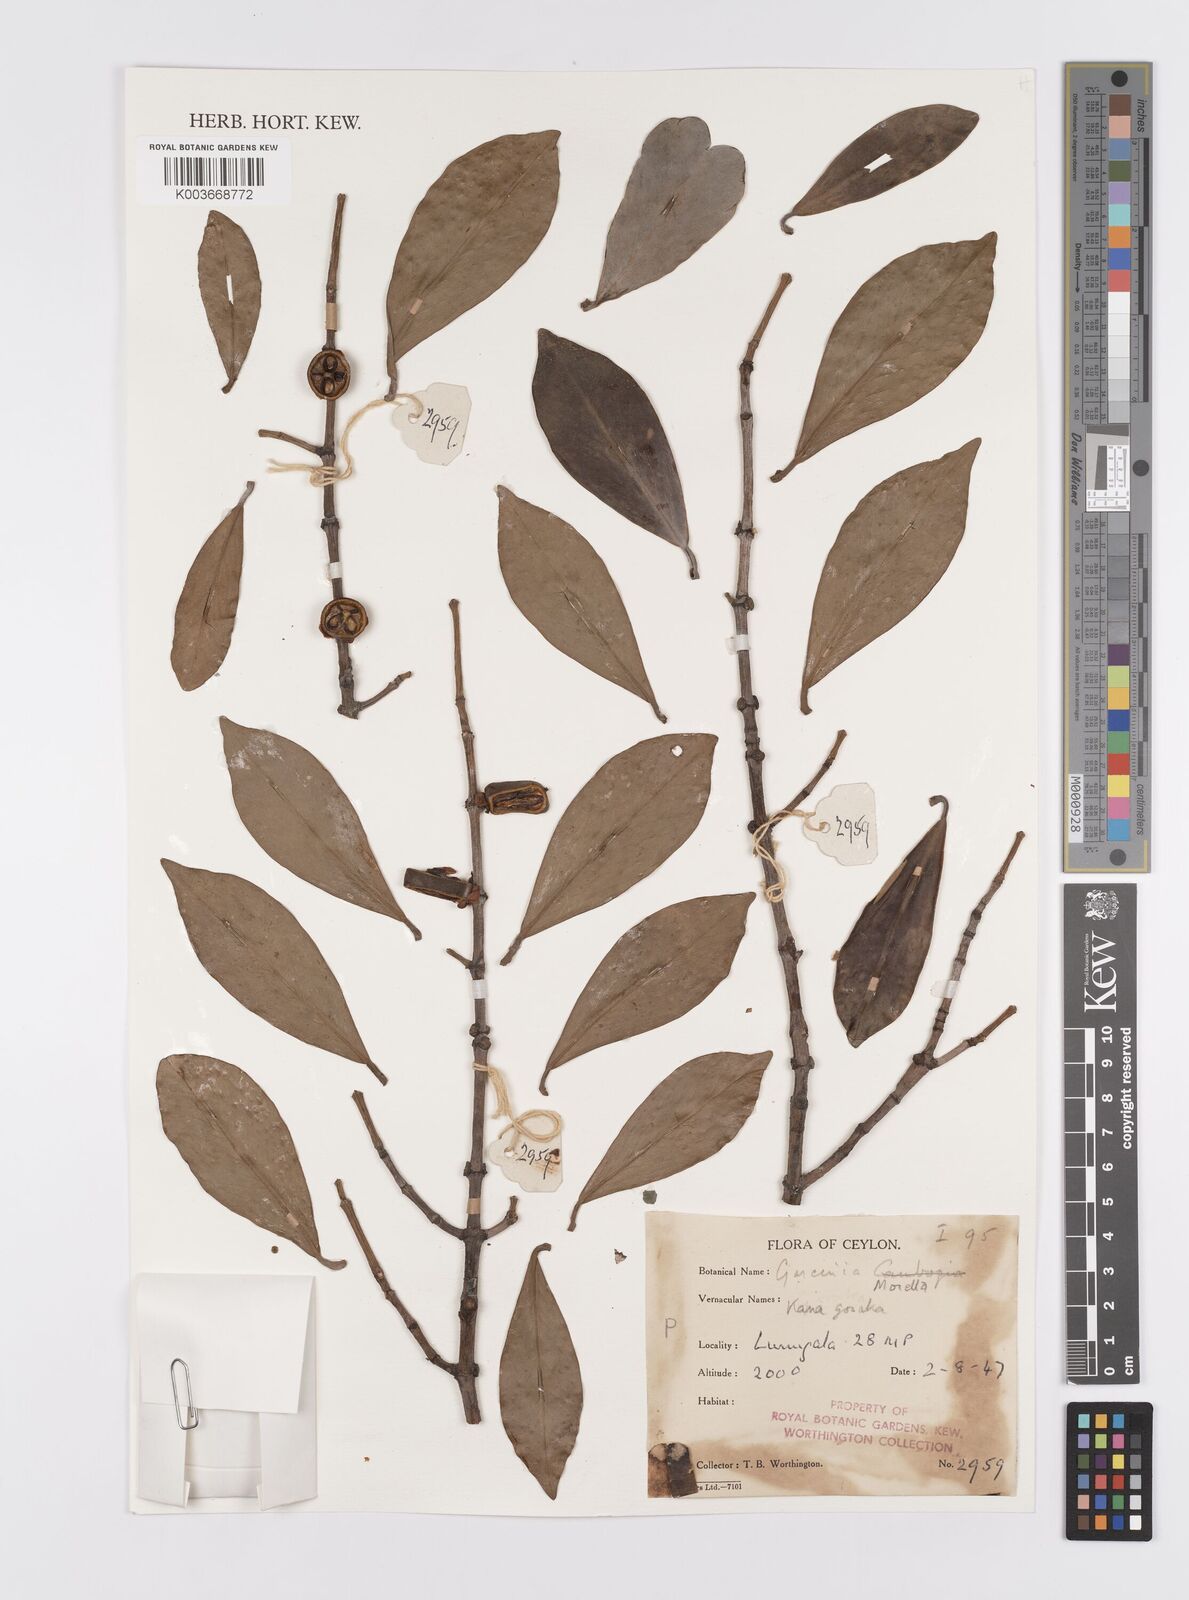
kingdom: Plantae
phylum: Tracheophyta
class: Magnoliopsida
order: Malpighiales
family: Clusiaceae
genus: Garcinia
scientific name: Garcinia morella
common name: Indian gamboge-tree
